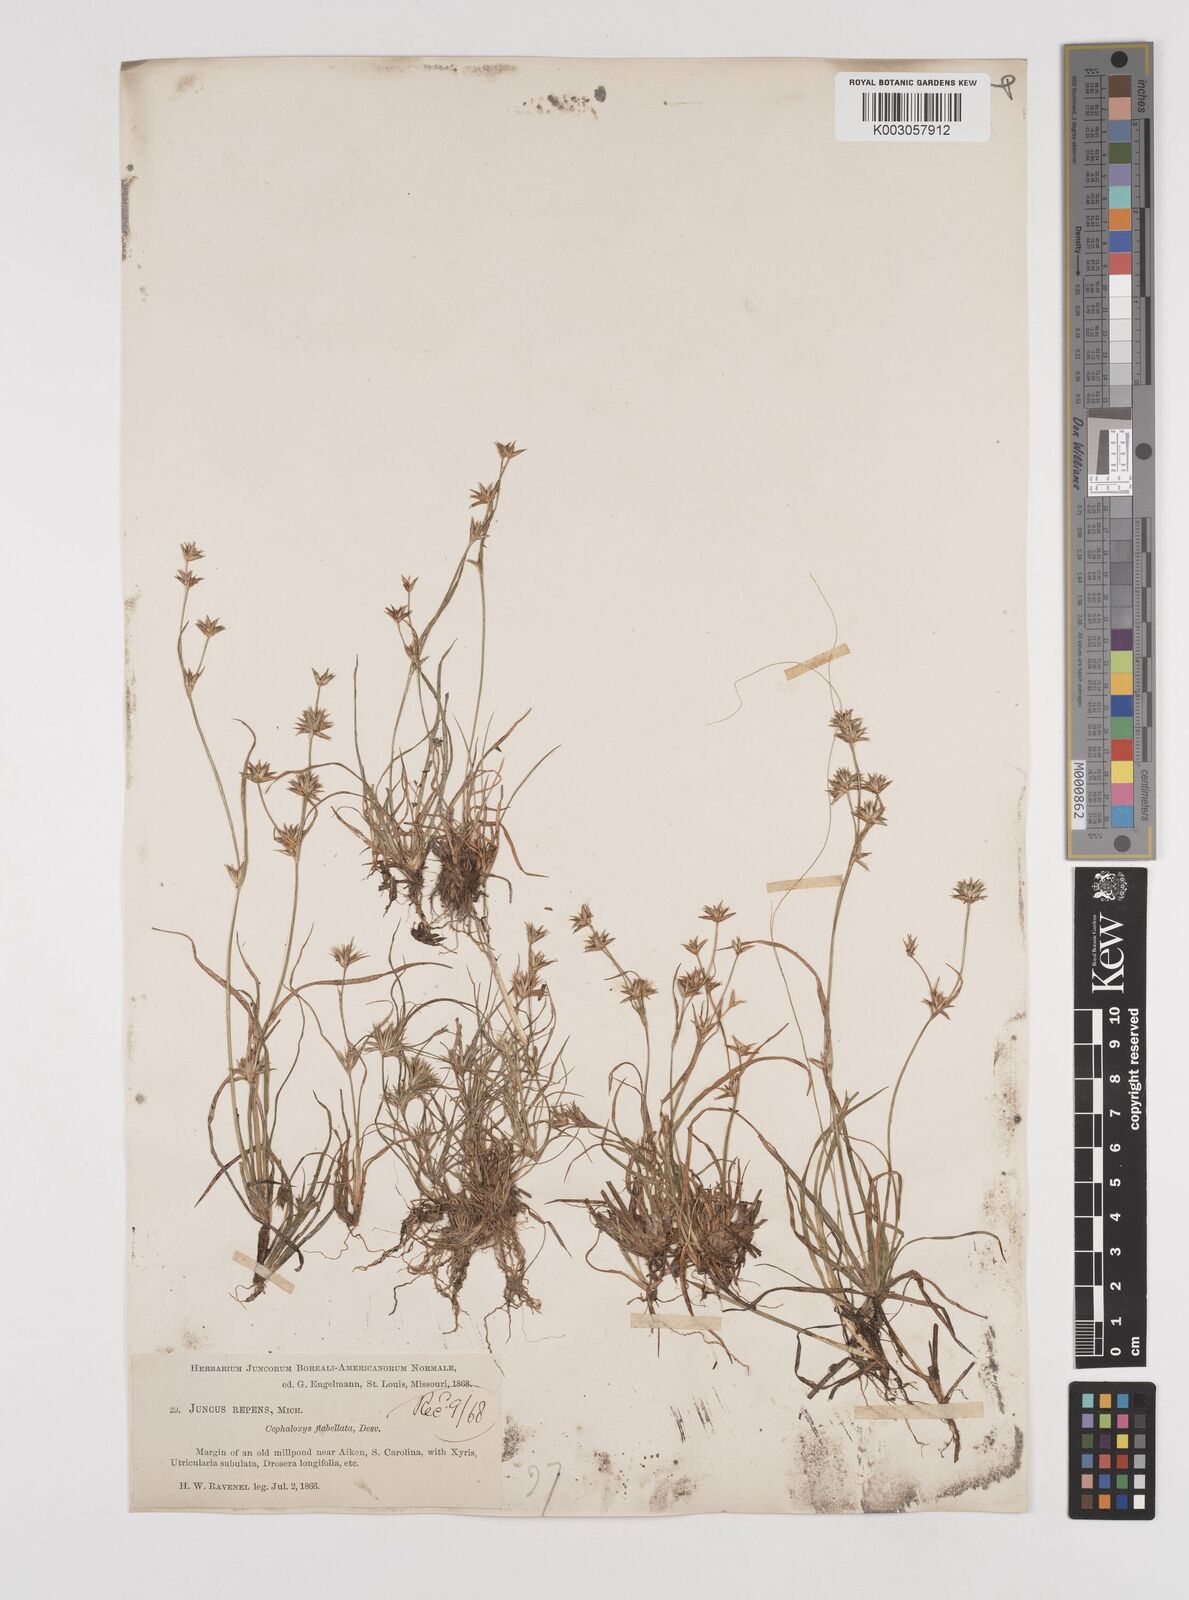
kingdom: Plantae
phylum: Tracheophyta
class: Liliopsida
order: Poales
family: Juncaceae
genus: Juncus
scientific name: Juncus repens
